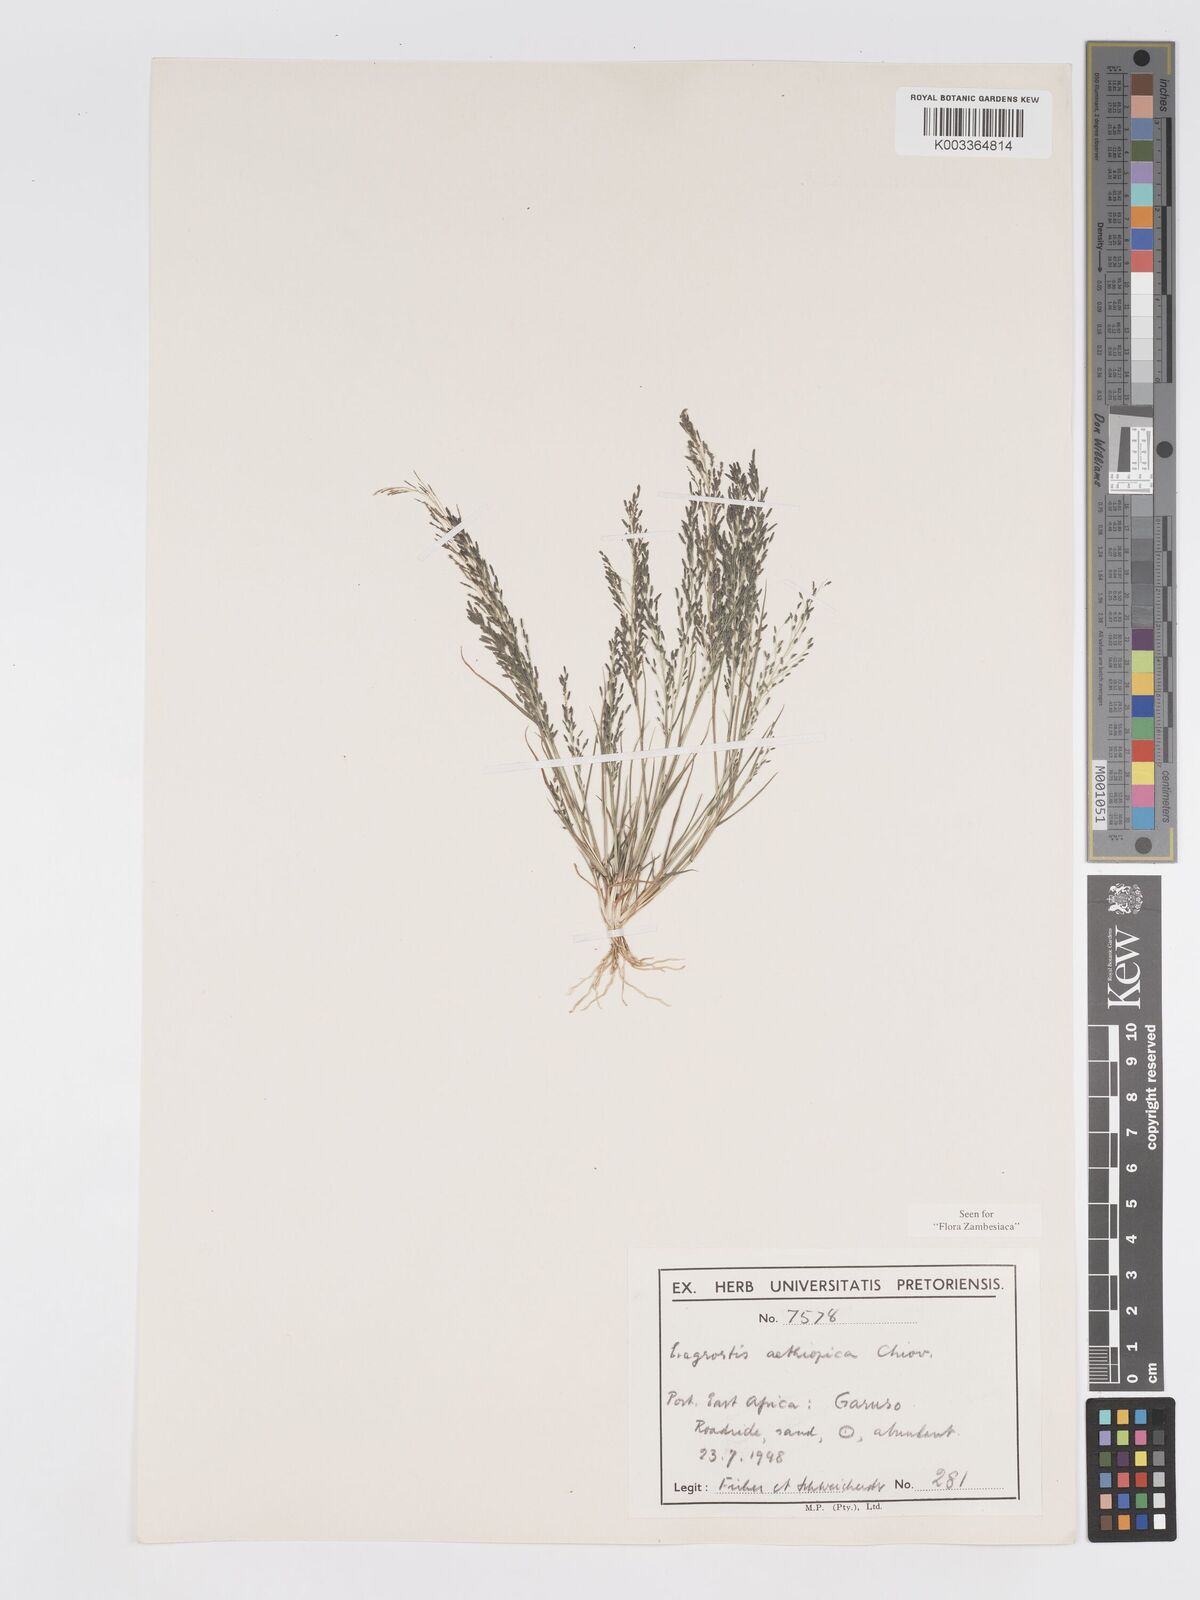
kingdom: Plantae
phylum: Tracheophyta
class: Liliopsida
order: Poales
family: Poaceae
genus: Eragrostis
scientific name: Eragrostis aethiopica
